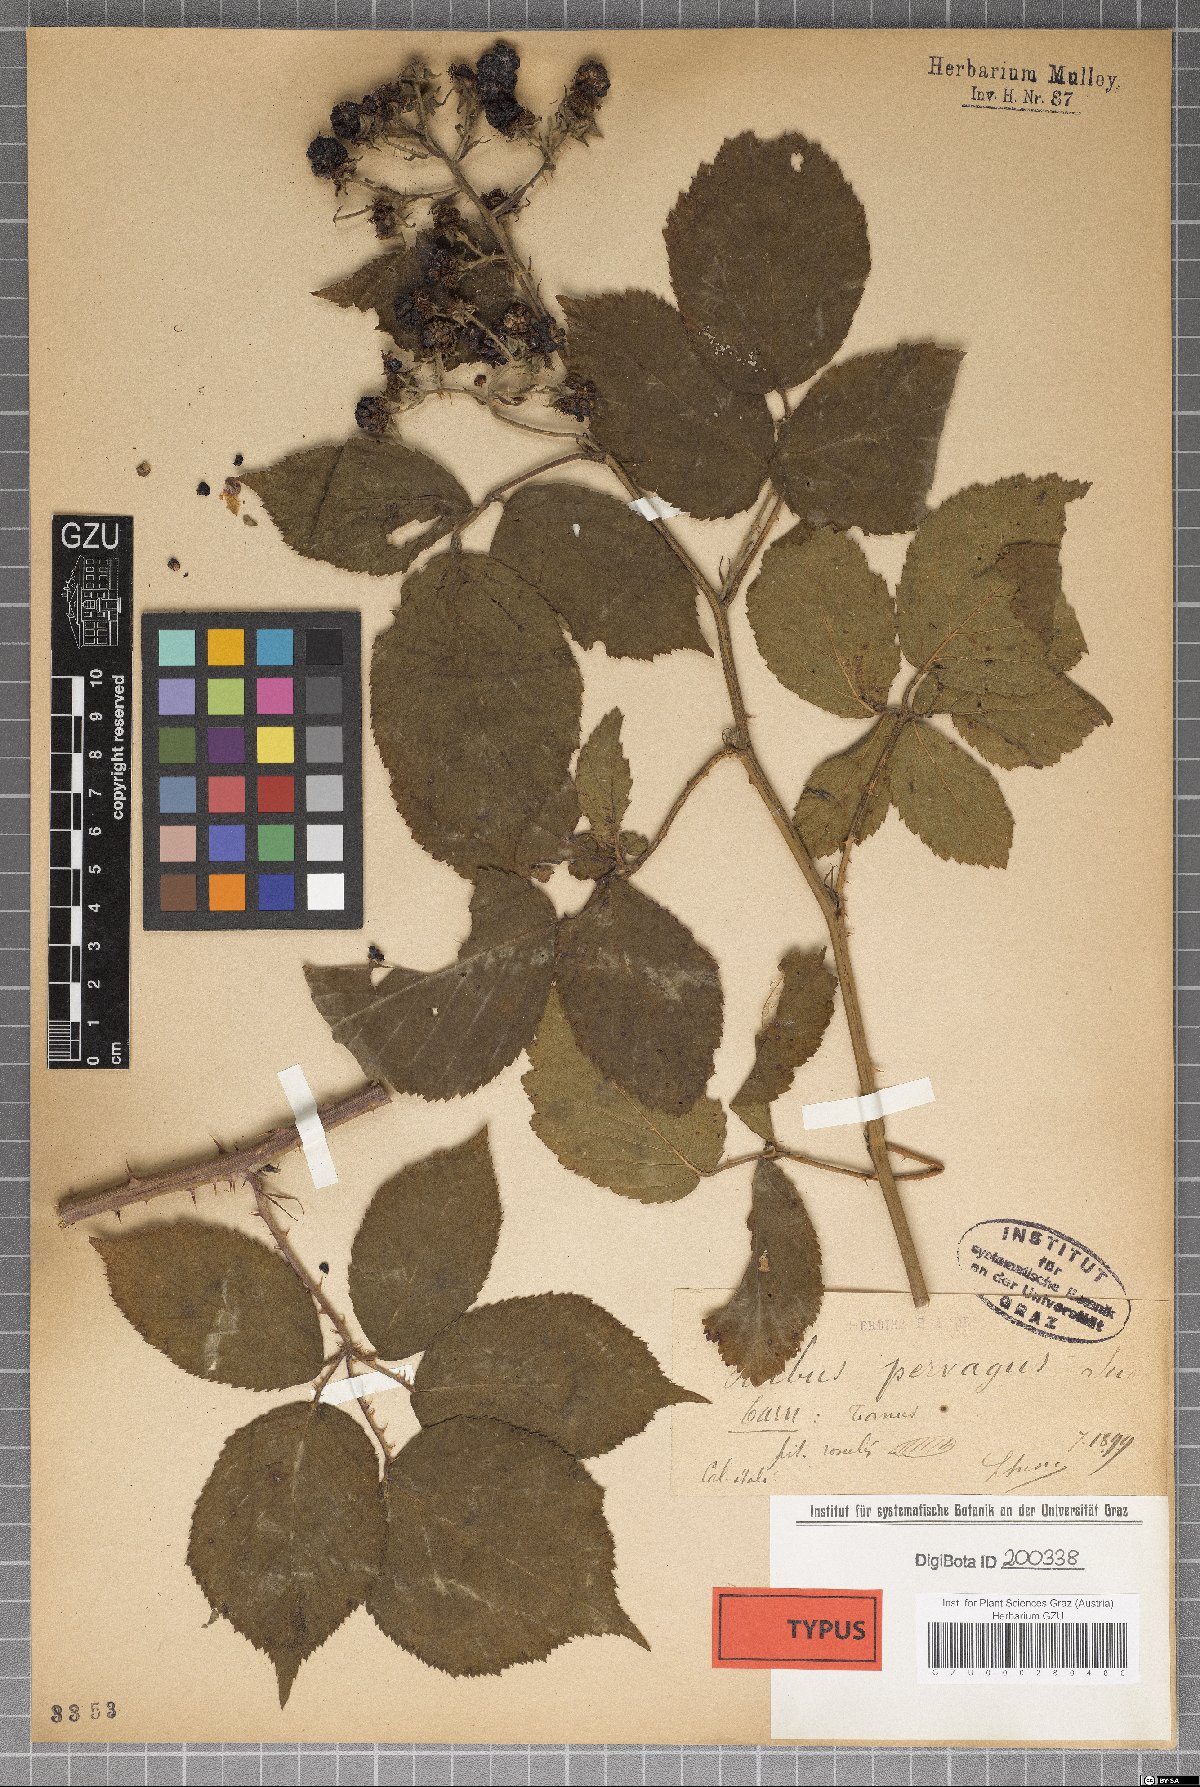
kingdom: Plantae
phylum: Tracheophyta
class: Magnoliopsida
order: Rosales
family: Rosaceae
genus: Rubus
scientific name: Rubus pervagus
